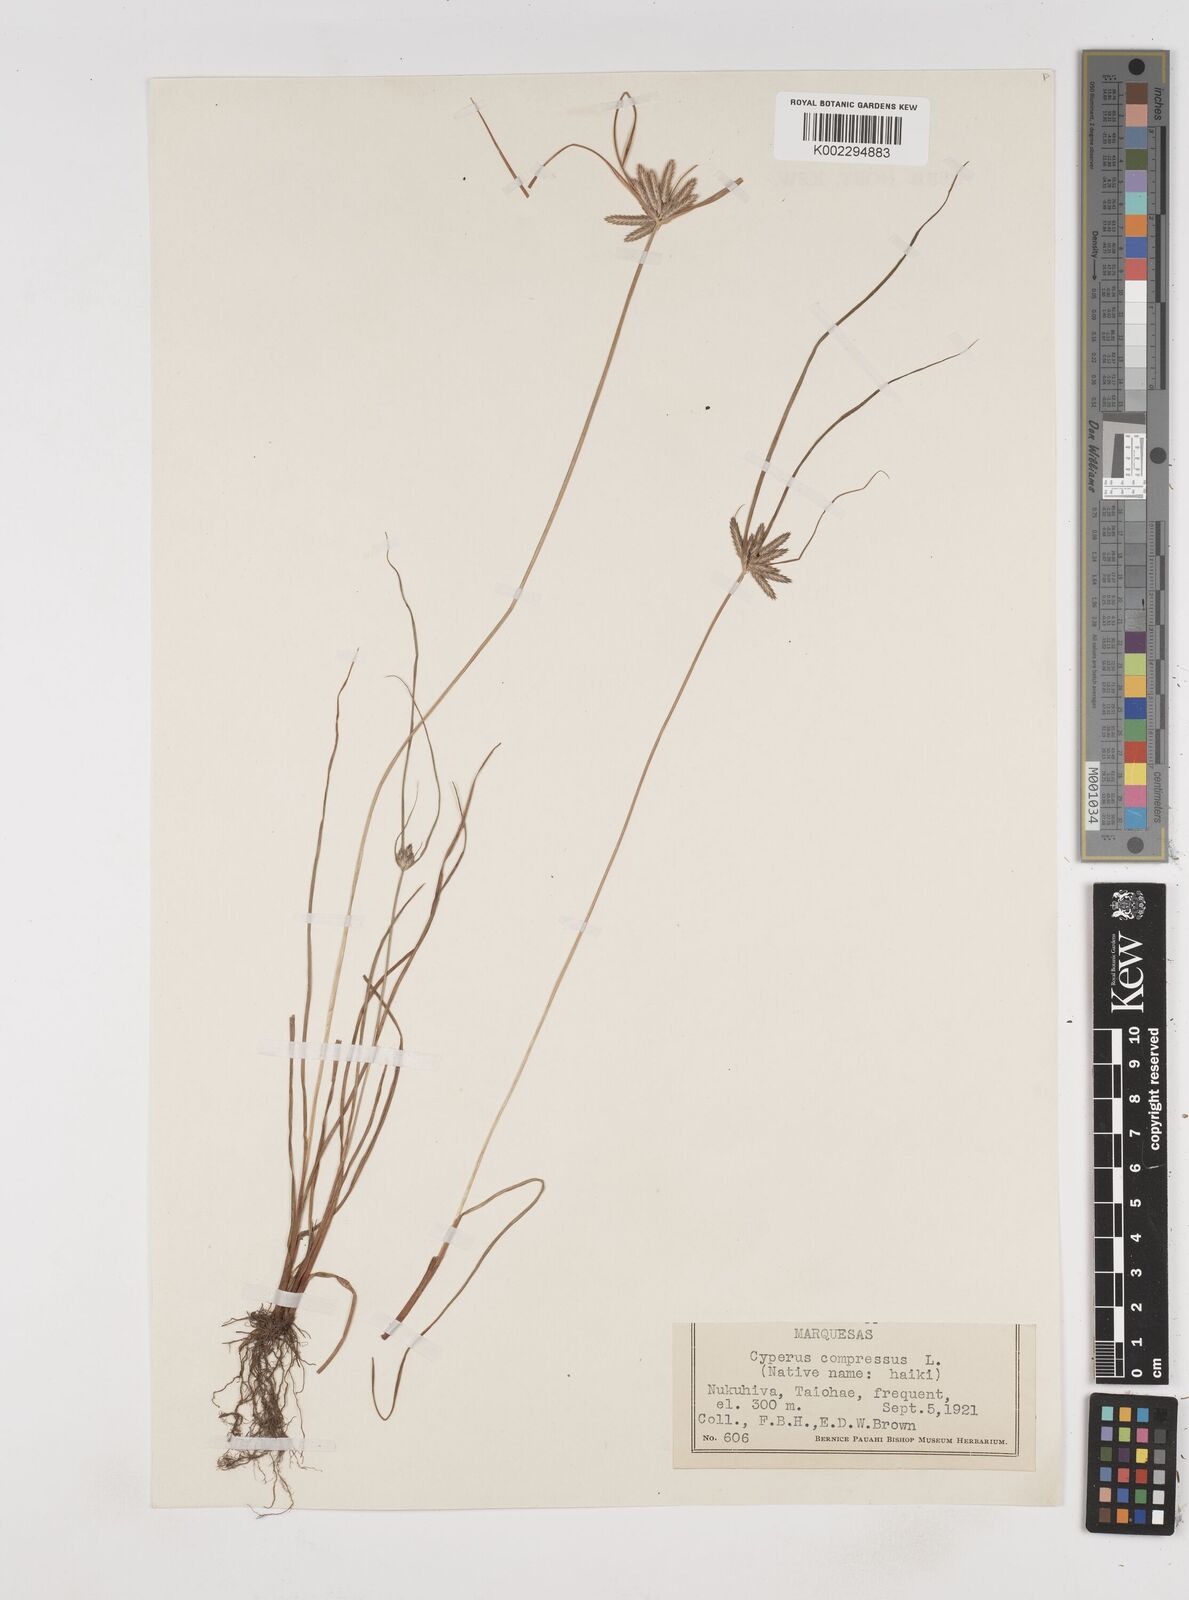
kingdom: Plantae
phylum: Tracheophyta
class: Liliopsida
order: Poales
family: Cyperaceae
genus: Cyperus
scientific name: Cyperus compressus
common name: Poorland flatsedge
